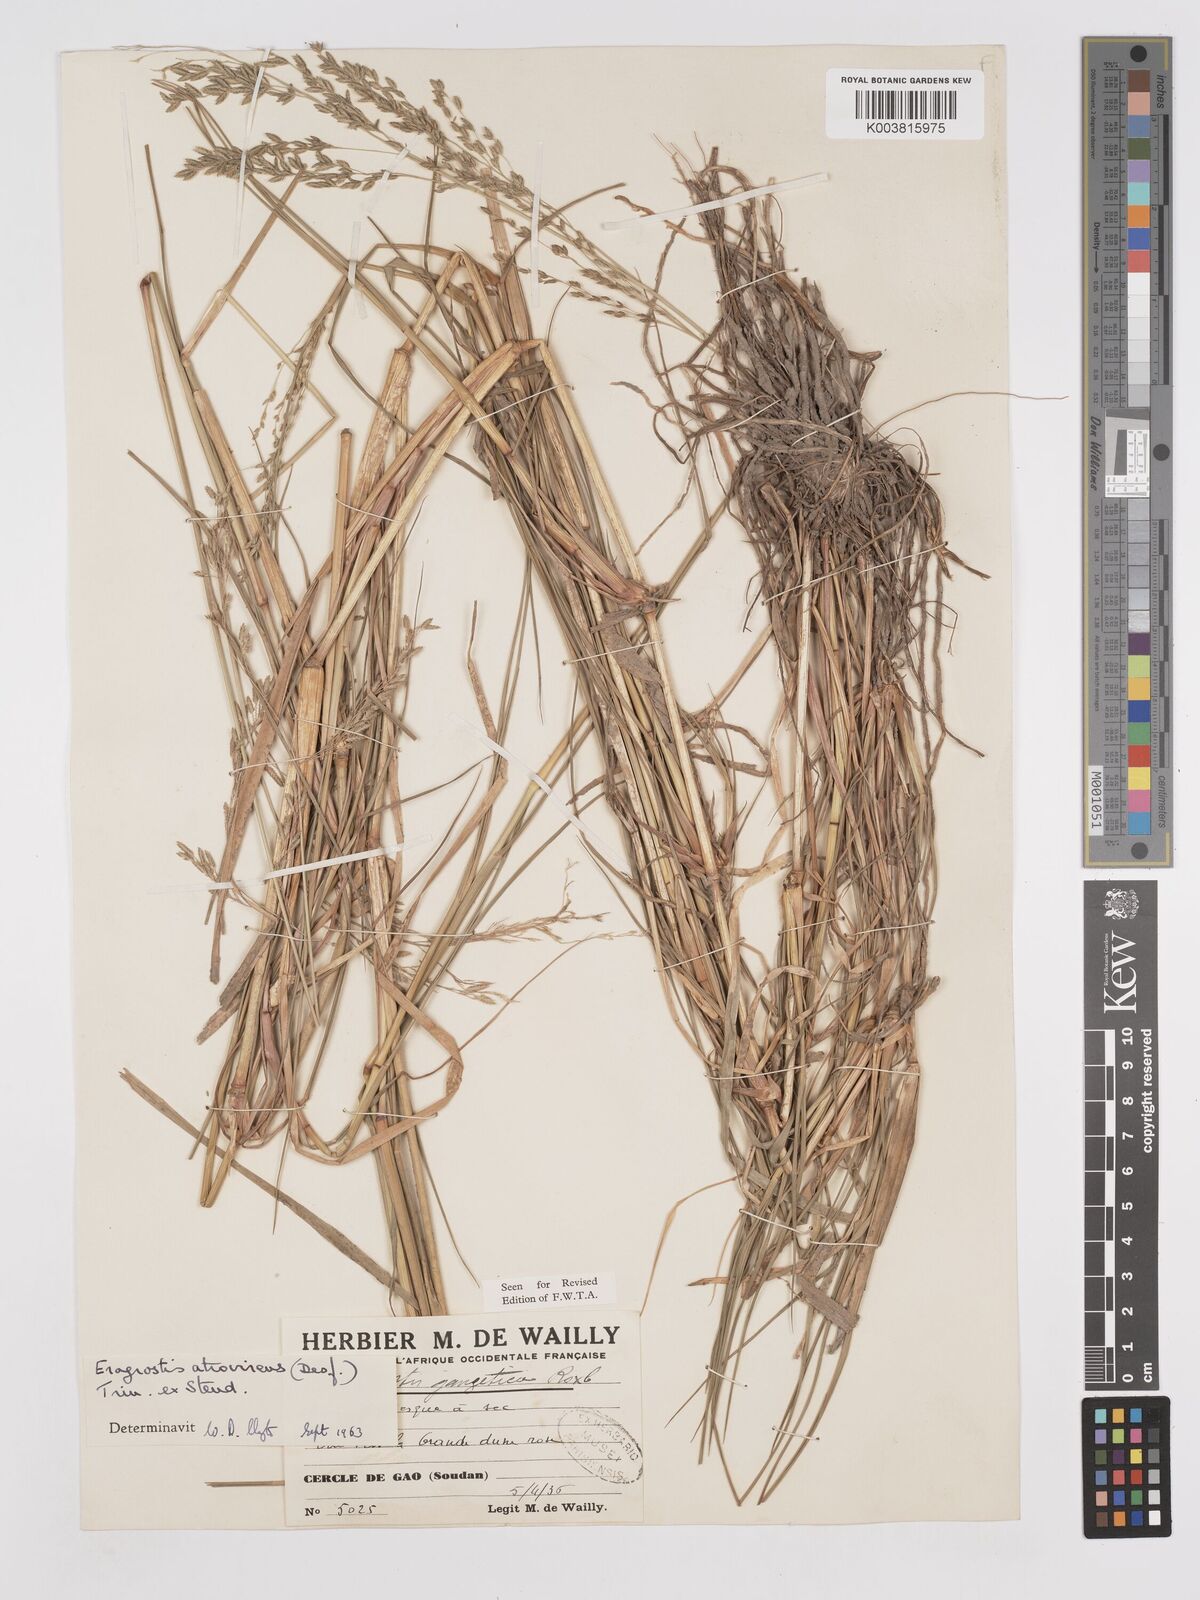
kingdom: Plantae
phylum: Tracheophyta
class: Liliopsida
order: Poales
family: Poaceae
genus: Eragrostis
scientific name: Eragrostis atrovirens
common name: Thalia lovegrass
